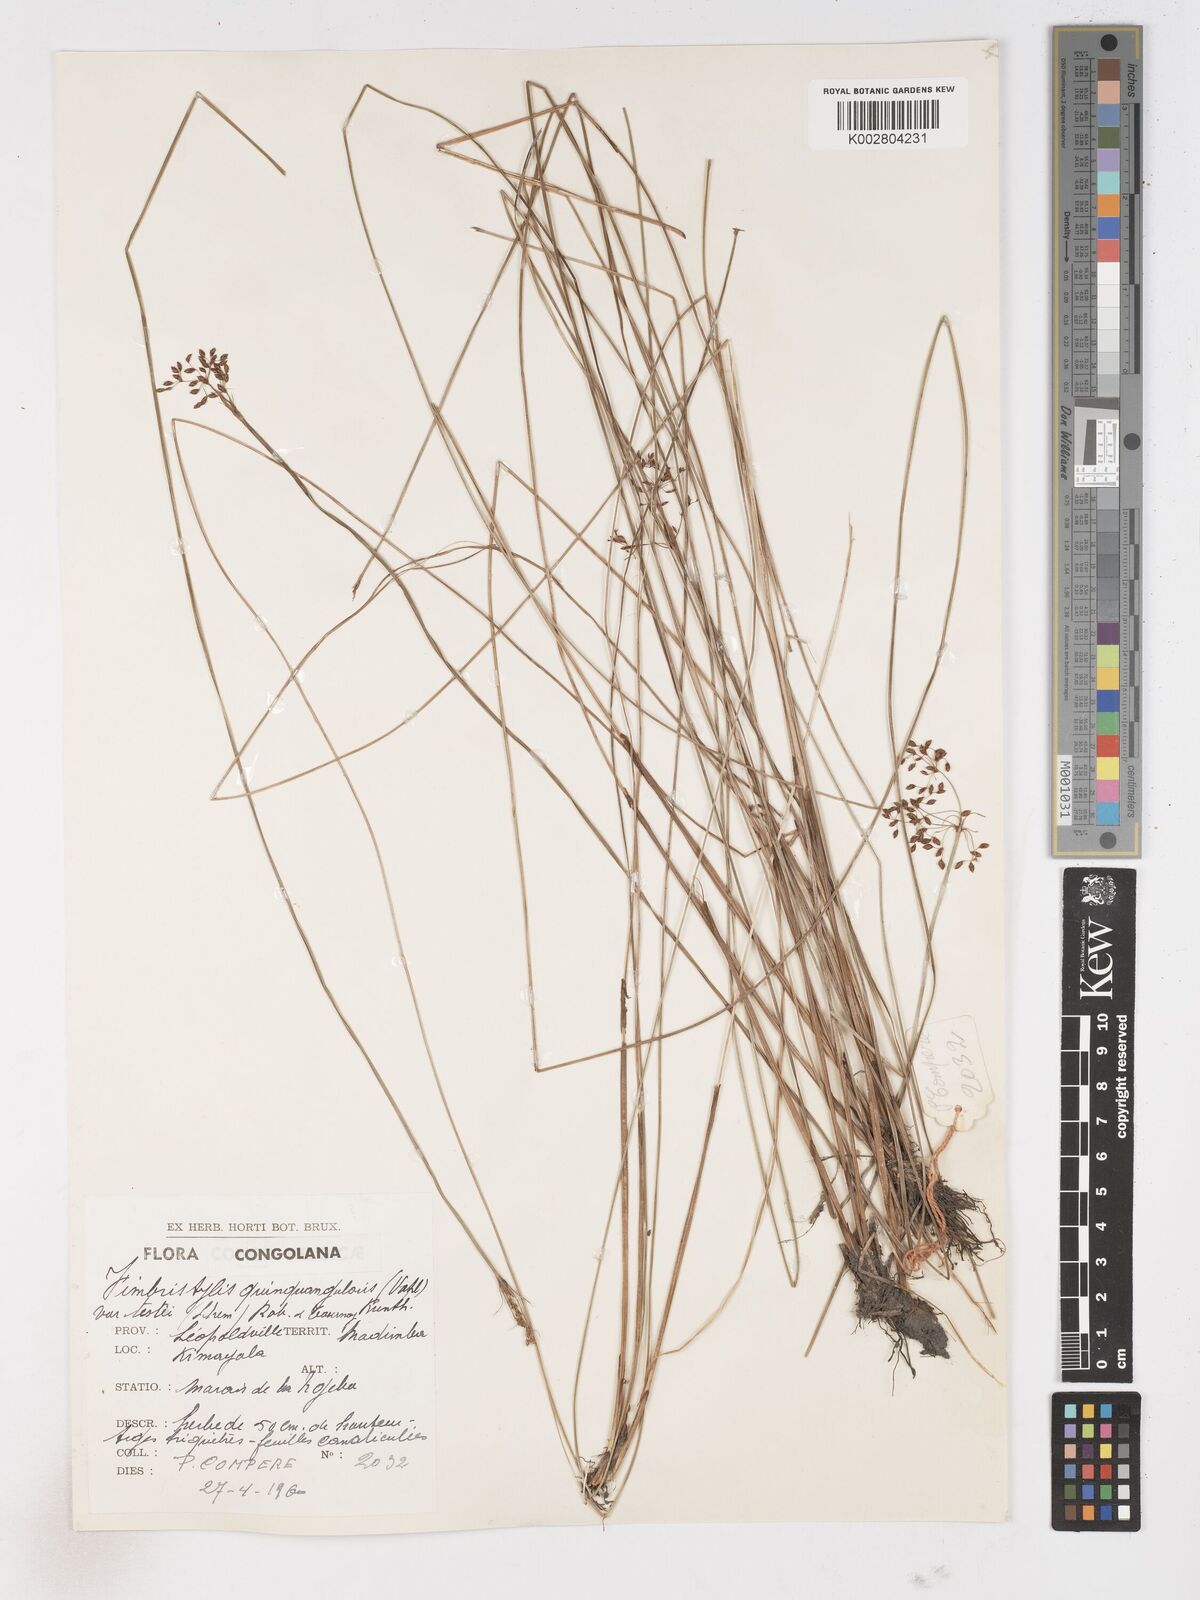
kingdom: Plantae
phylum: Tracheophyta
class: Liliopsida
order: Poales
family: Cyperaceae
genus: Fimbristylis
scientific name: Fimbristylis quinquangularis
